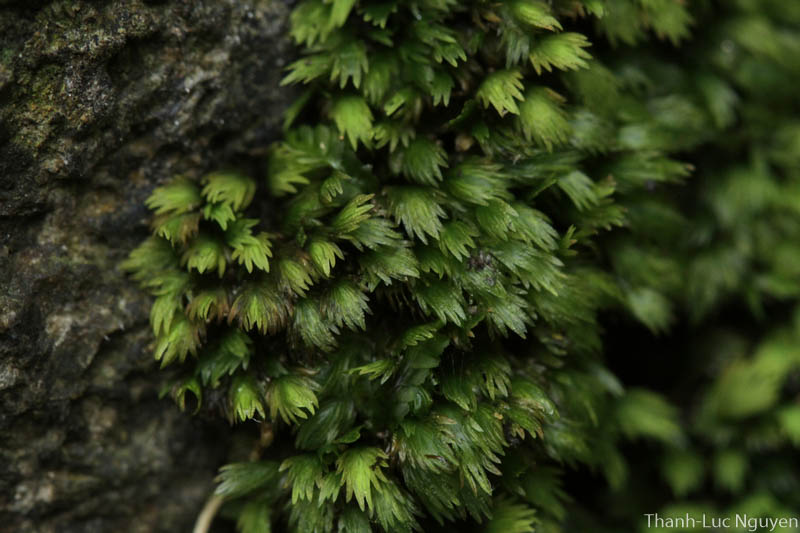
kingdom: Plantae
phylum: Bryophyta
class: Bryopsida
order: Dicranales
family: Fissidentaceae
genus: Fissidens
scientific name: Fissidens
